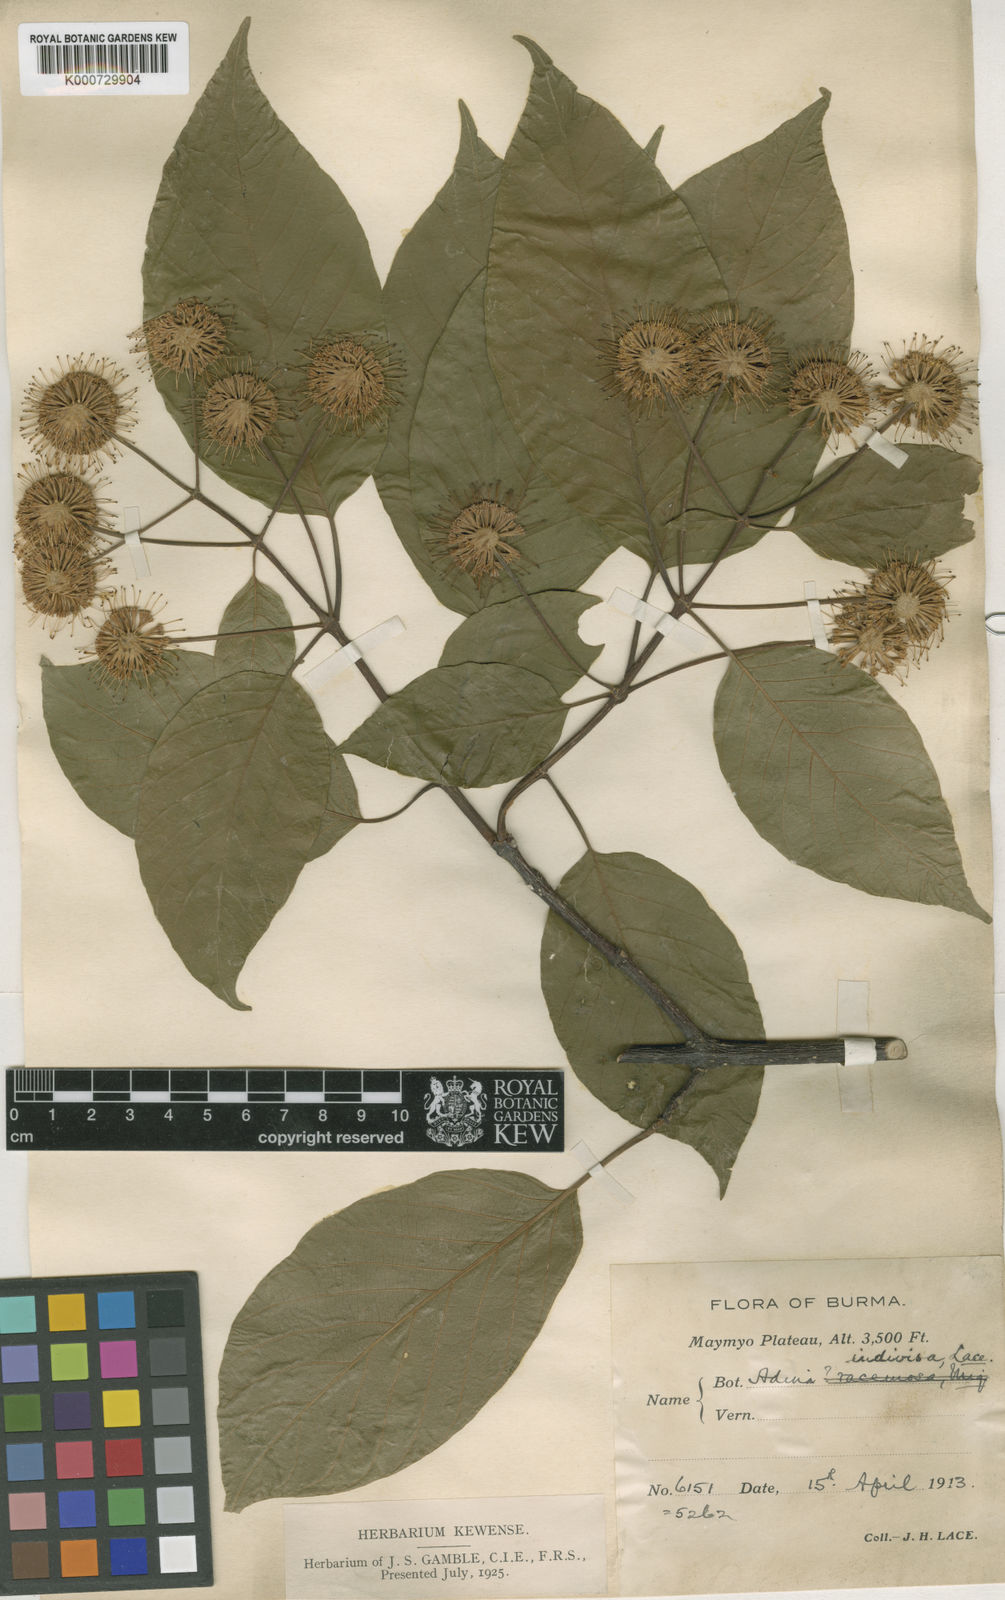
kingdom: Plantae
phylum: Tracheophyta
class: Magnoliopsida
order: Gentianales
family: Rubiaceae
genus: Adina
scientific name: Adina racemosa
